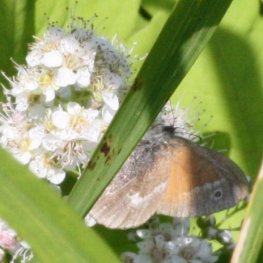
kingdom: Animalia
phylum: Arthropoda
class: Insecta
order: Lepidoptera
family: Nymphalidae
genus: Coenonympha
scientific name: Coenonympha tullia
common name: Large Heath
